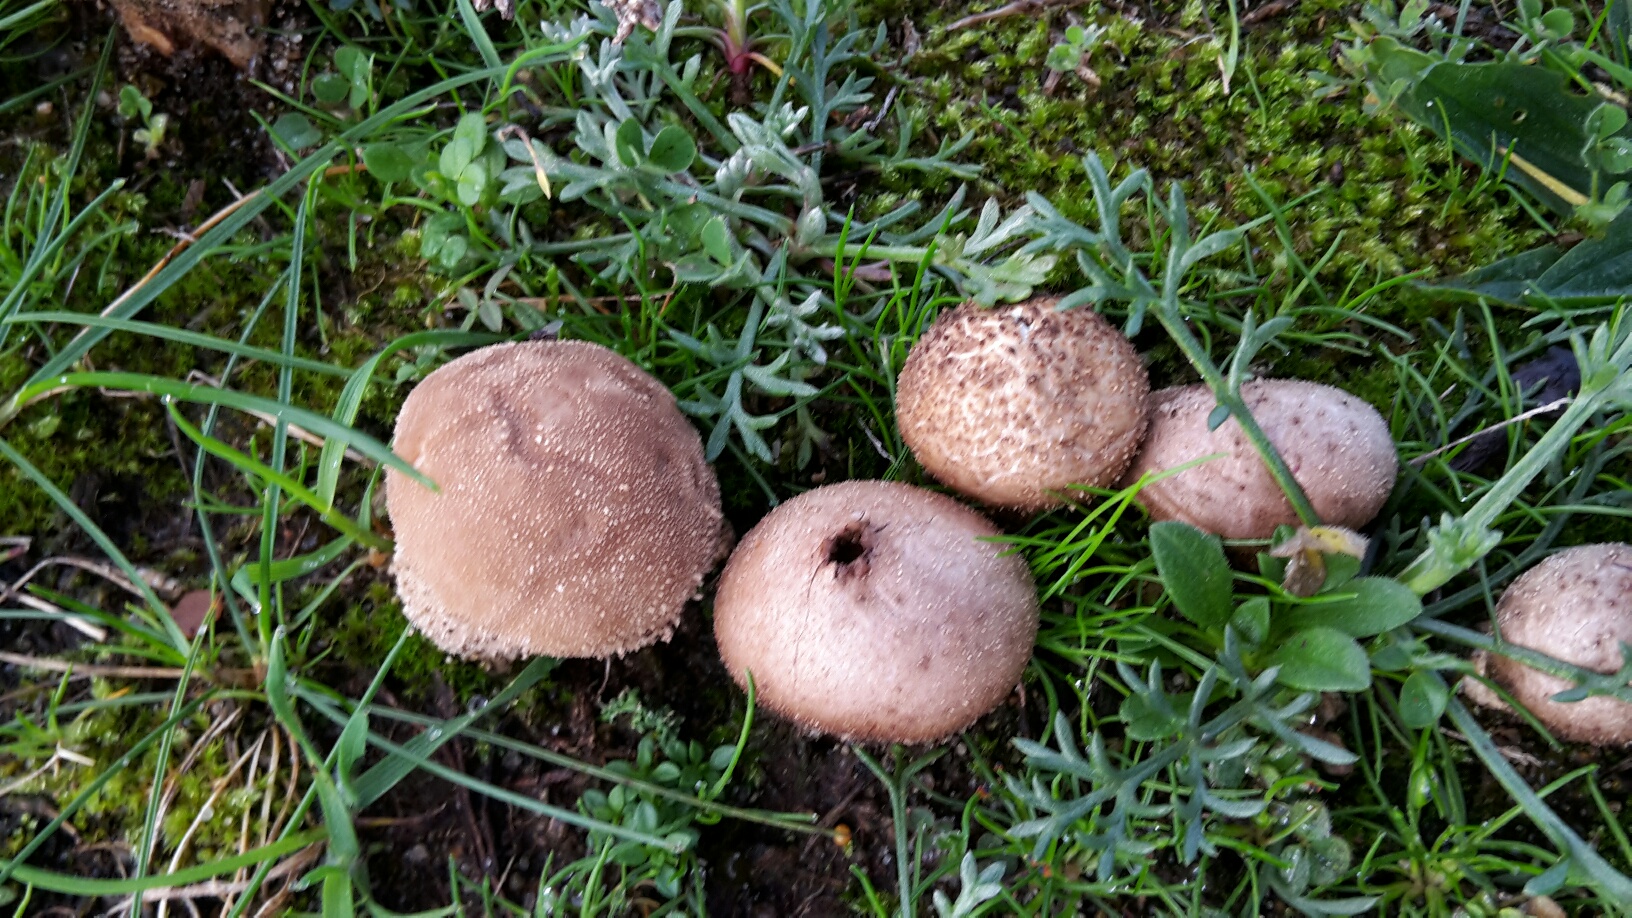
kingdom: Fungi
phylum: Basidiomycota
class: Agaricomycetes
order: Agaricales
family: Lycoperdaceae
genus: Lycoperdon
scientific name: Lycoperdon lividum
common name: mark-støvbold
